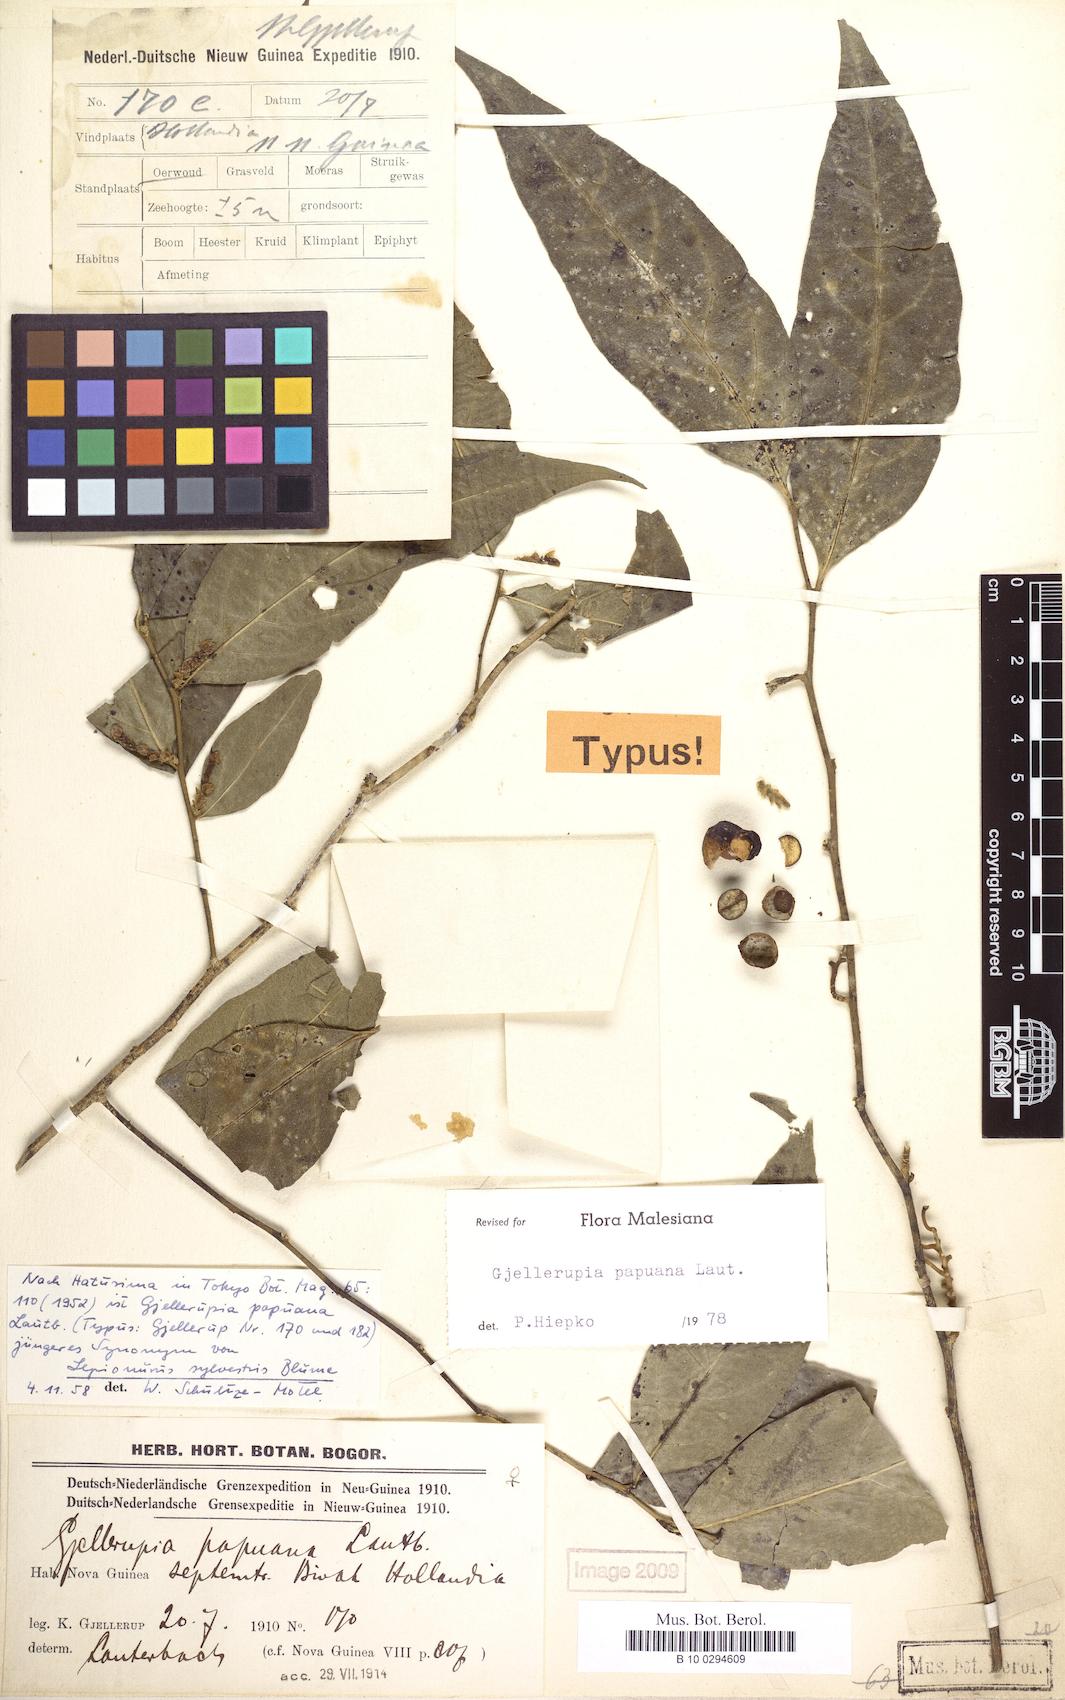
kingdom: Plantae
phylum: Tracheophyta
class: Magnoliopsida
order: Santalales
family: Opiliaceae
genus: Gjellerupia
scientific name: Gjellerupia papuana
